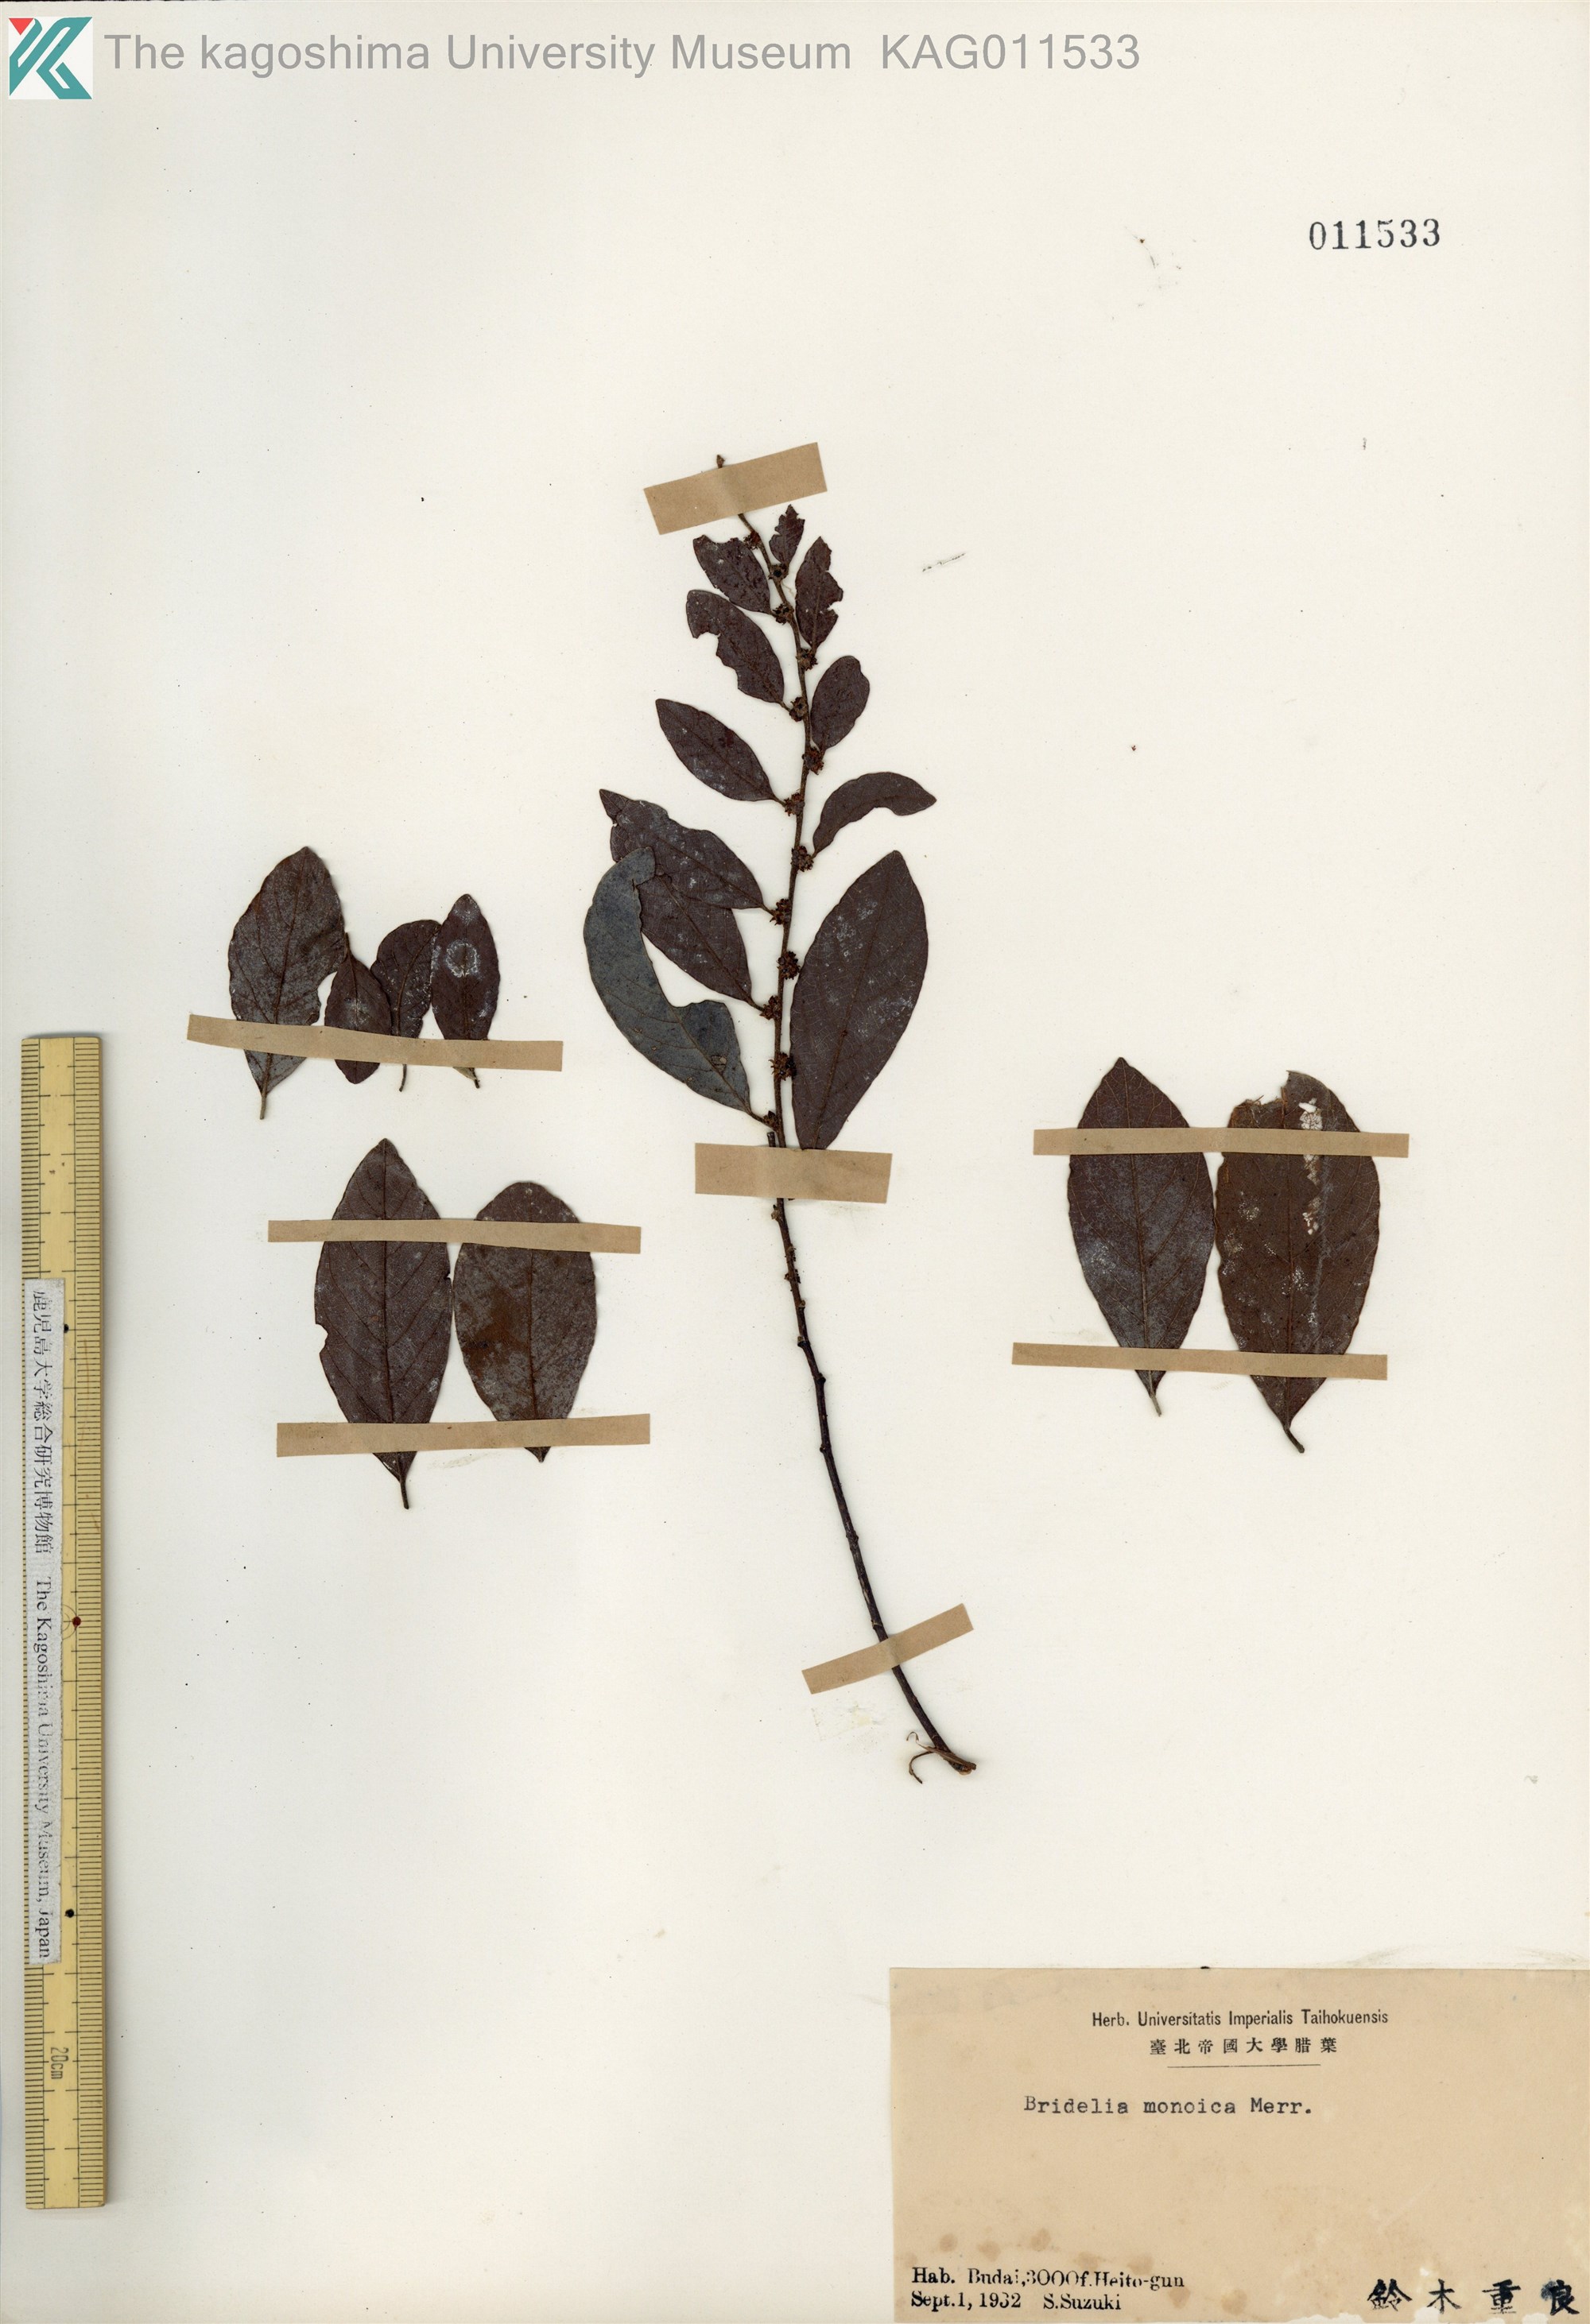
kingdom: Plantae
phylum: Tracheophyta
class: Magnoliopsida
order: Malpighiales
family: Phyllanthaceae
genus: Cleistanthus
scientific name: Cleistanthus monoicus
